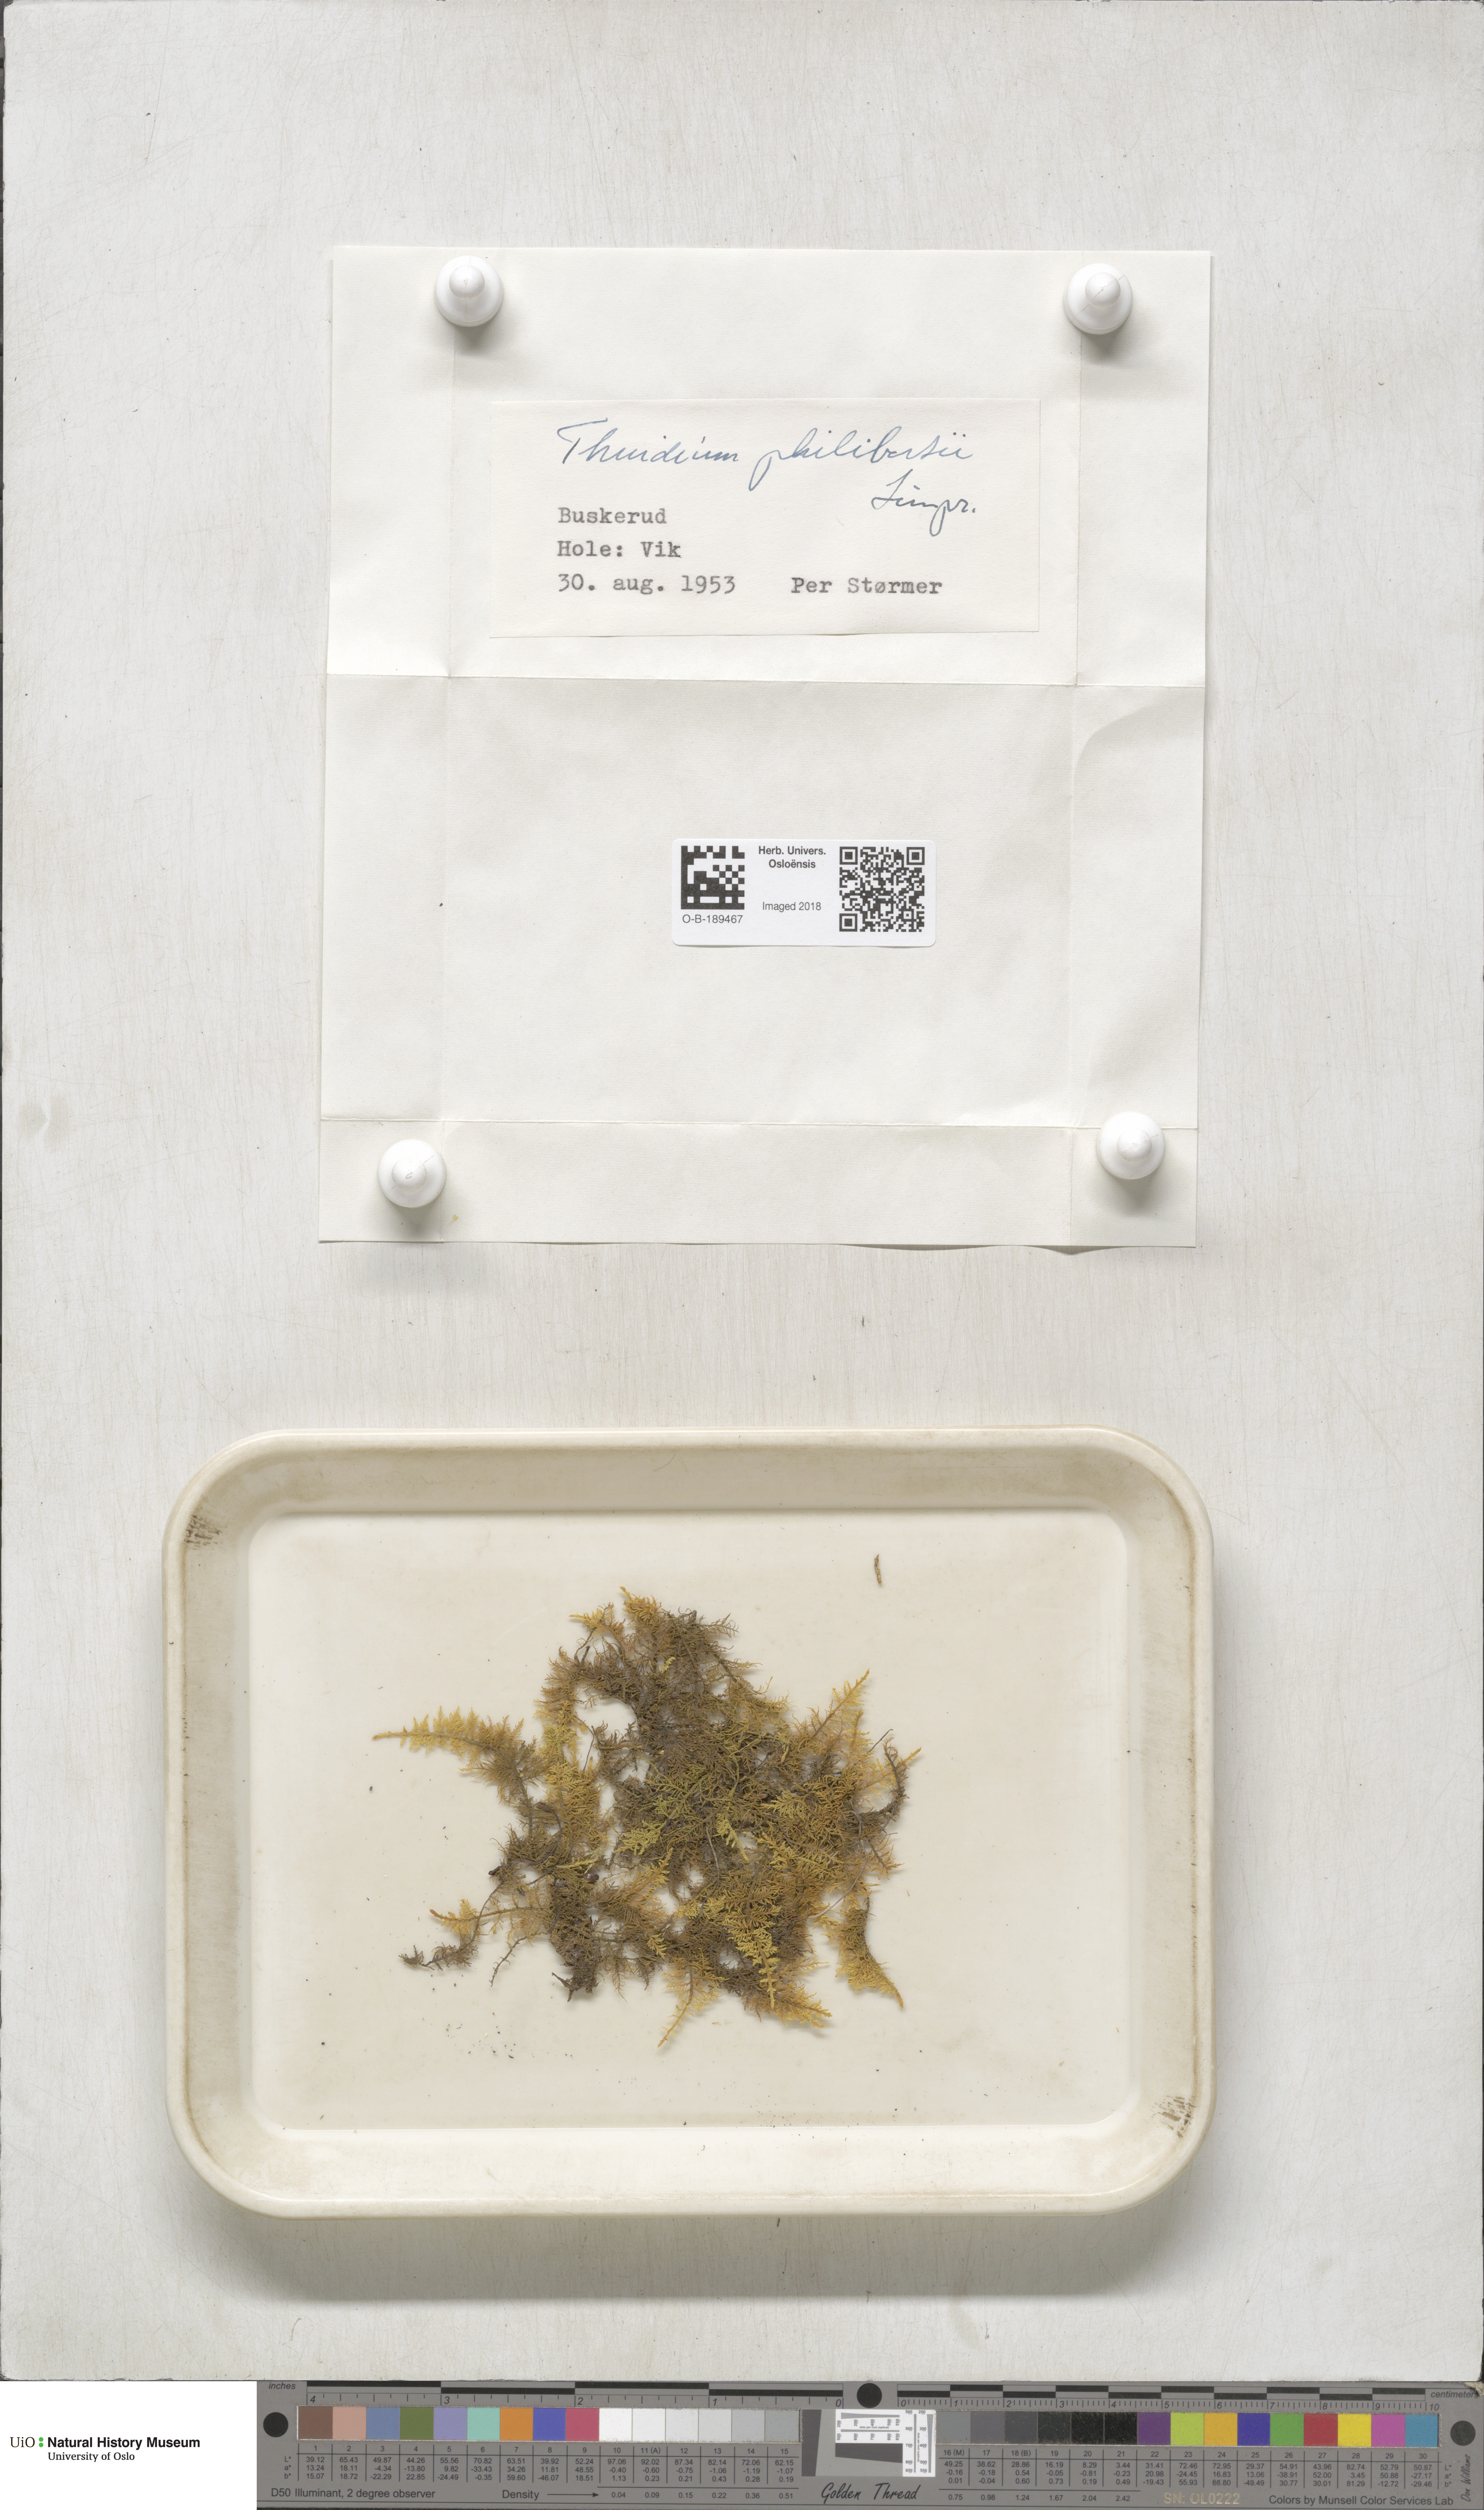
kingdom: Plantae
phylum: Bryophyta
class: Bryopsida
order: Hypnales
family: Thuidiaceae
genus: Thuidium
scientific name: Thuidium assimile
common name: Philibert's fern moss
